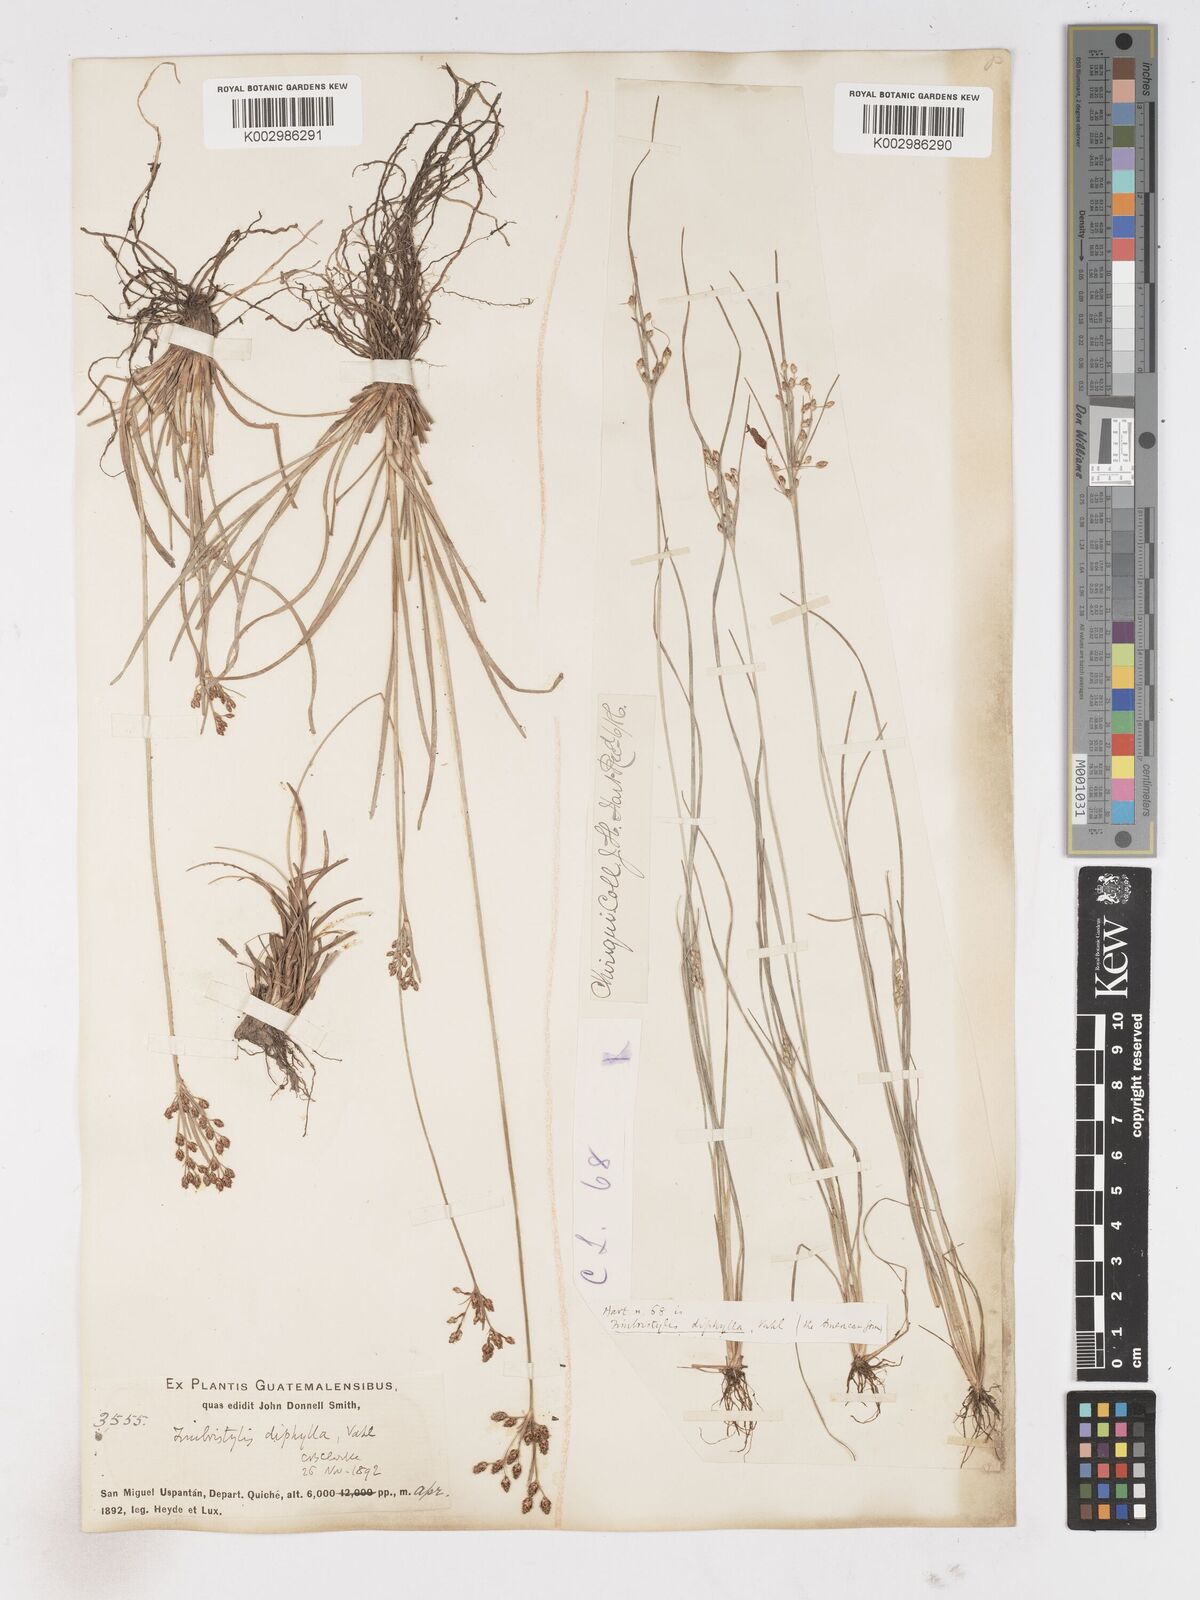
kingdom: Plantae
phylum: Tracheophyta
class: Liliopsida
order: Poales
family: Cyperaceae
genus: Fimbristylis
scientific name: Fimbristylis dichotoma
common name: Forked fimbry
